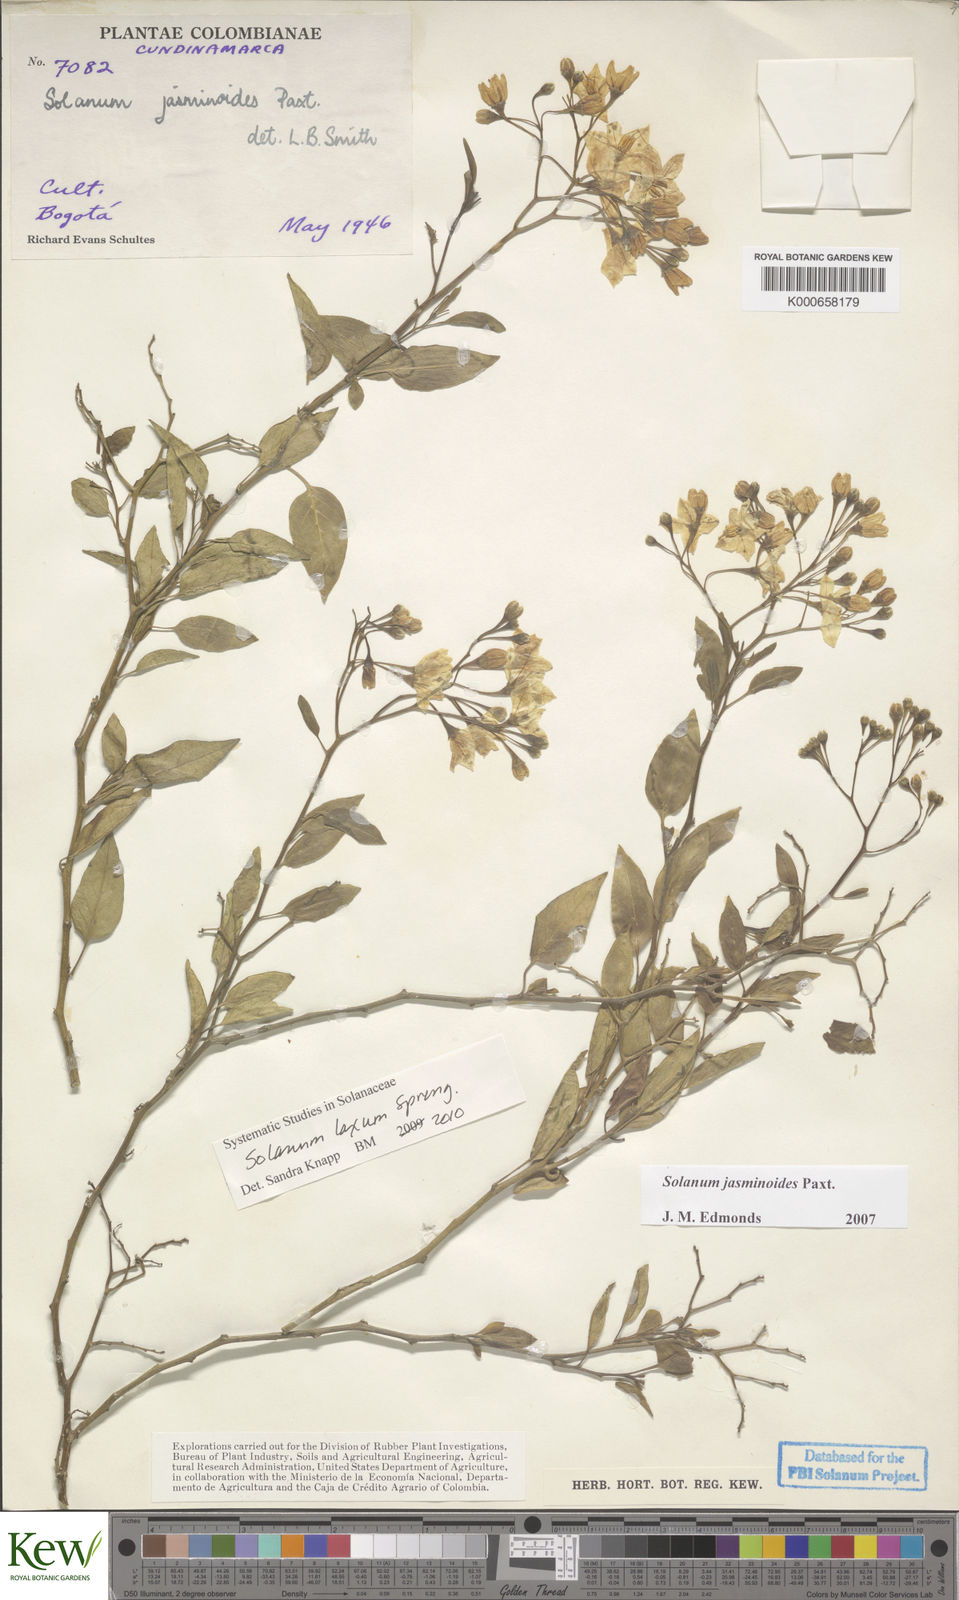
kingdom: Plantae
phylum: Tracheophyta
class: Magnoliopsida
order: Solanales
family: Solanaceae
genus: Solanum
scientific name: Solanum laxum
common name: Nightshade
